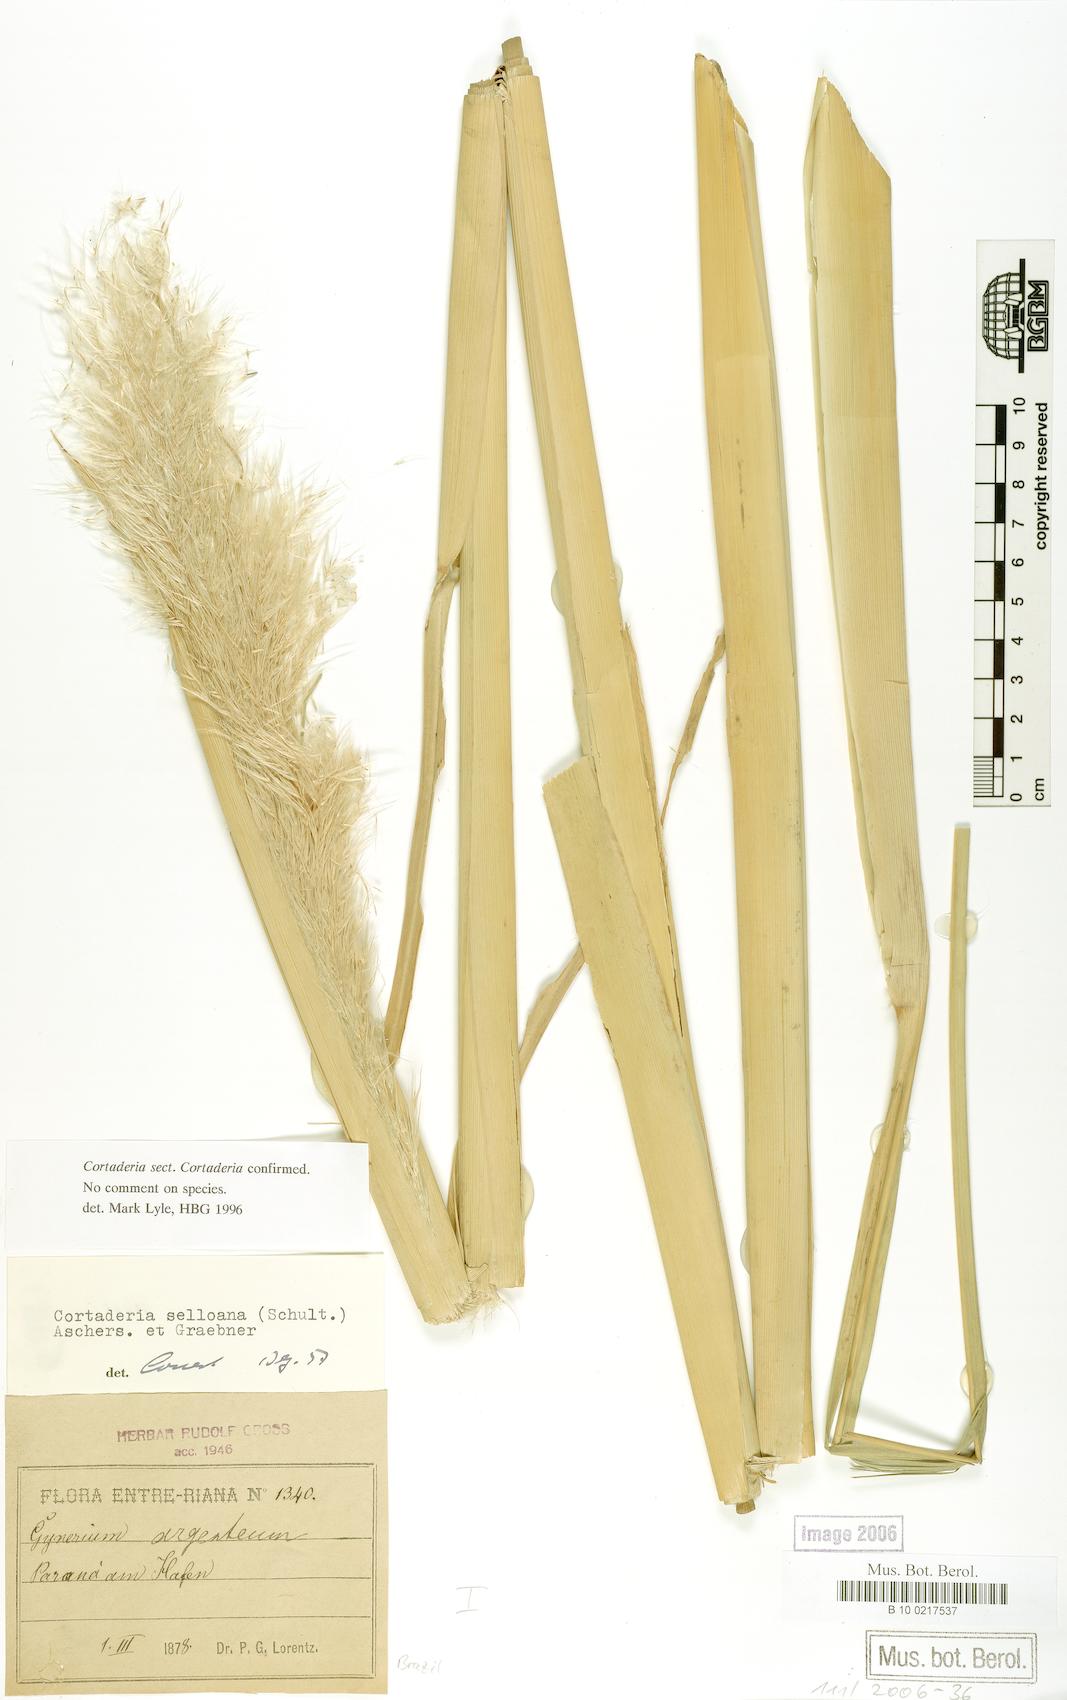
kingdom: Plantae
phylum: Tracheophyta
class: Liliopsida
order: Poales
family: Poaceae
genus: Cortaderia
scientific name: Cortaderia selloana
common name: Uruguayan pampas grass
